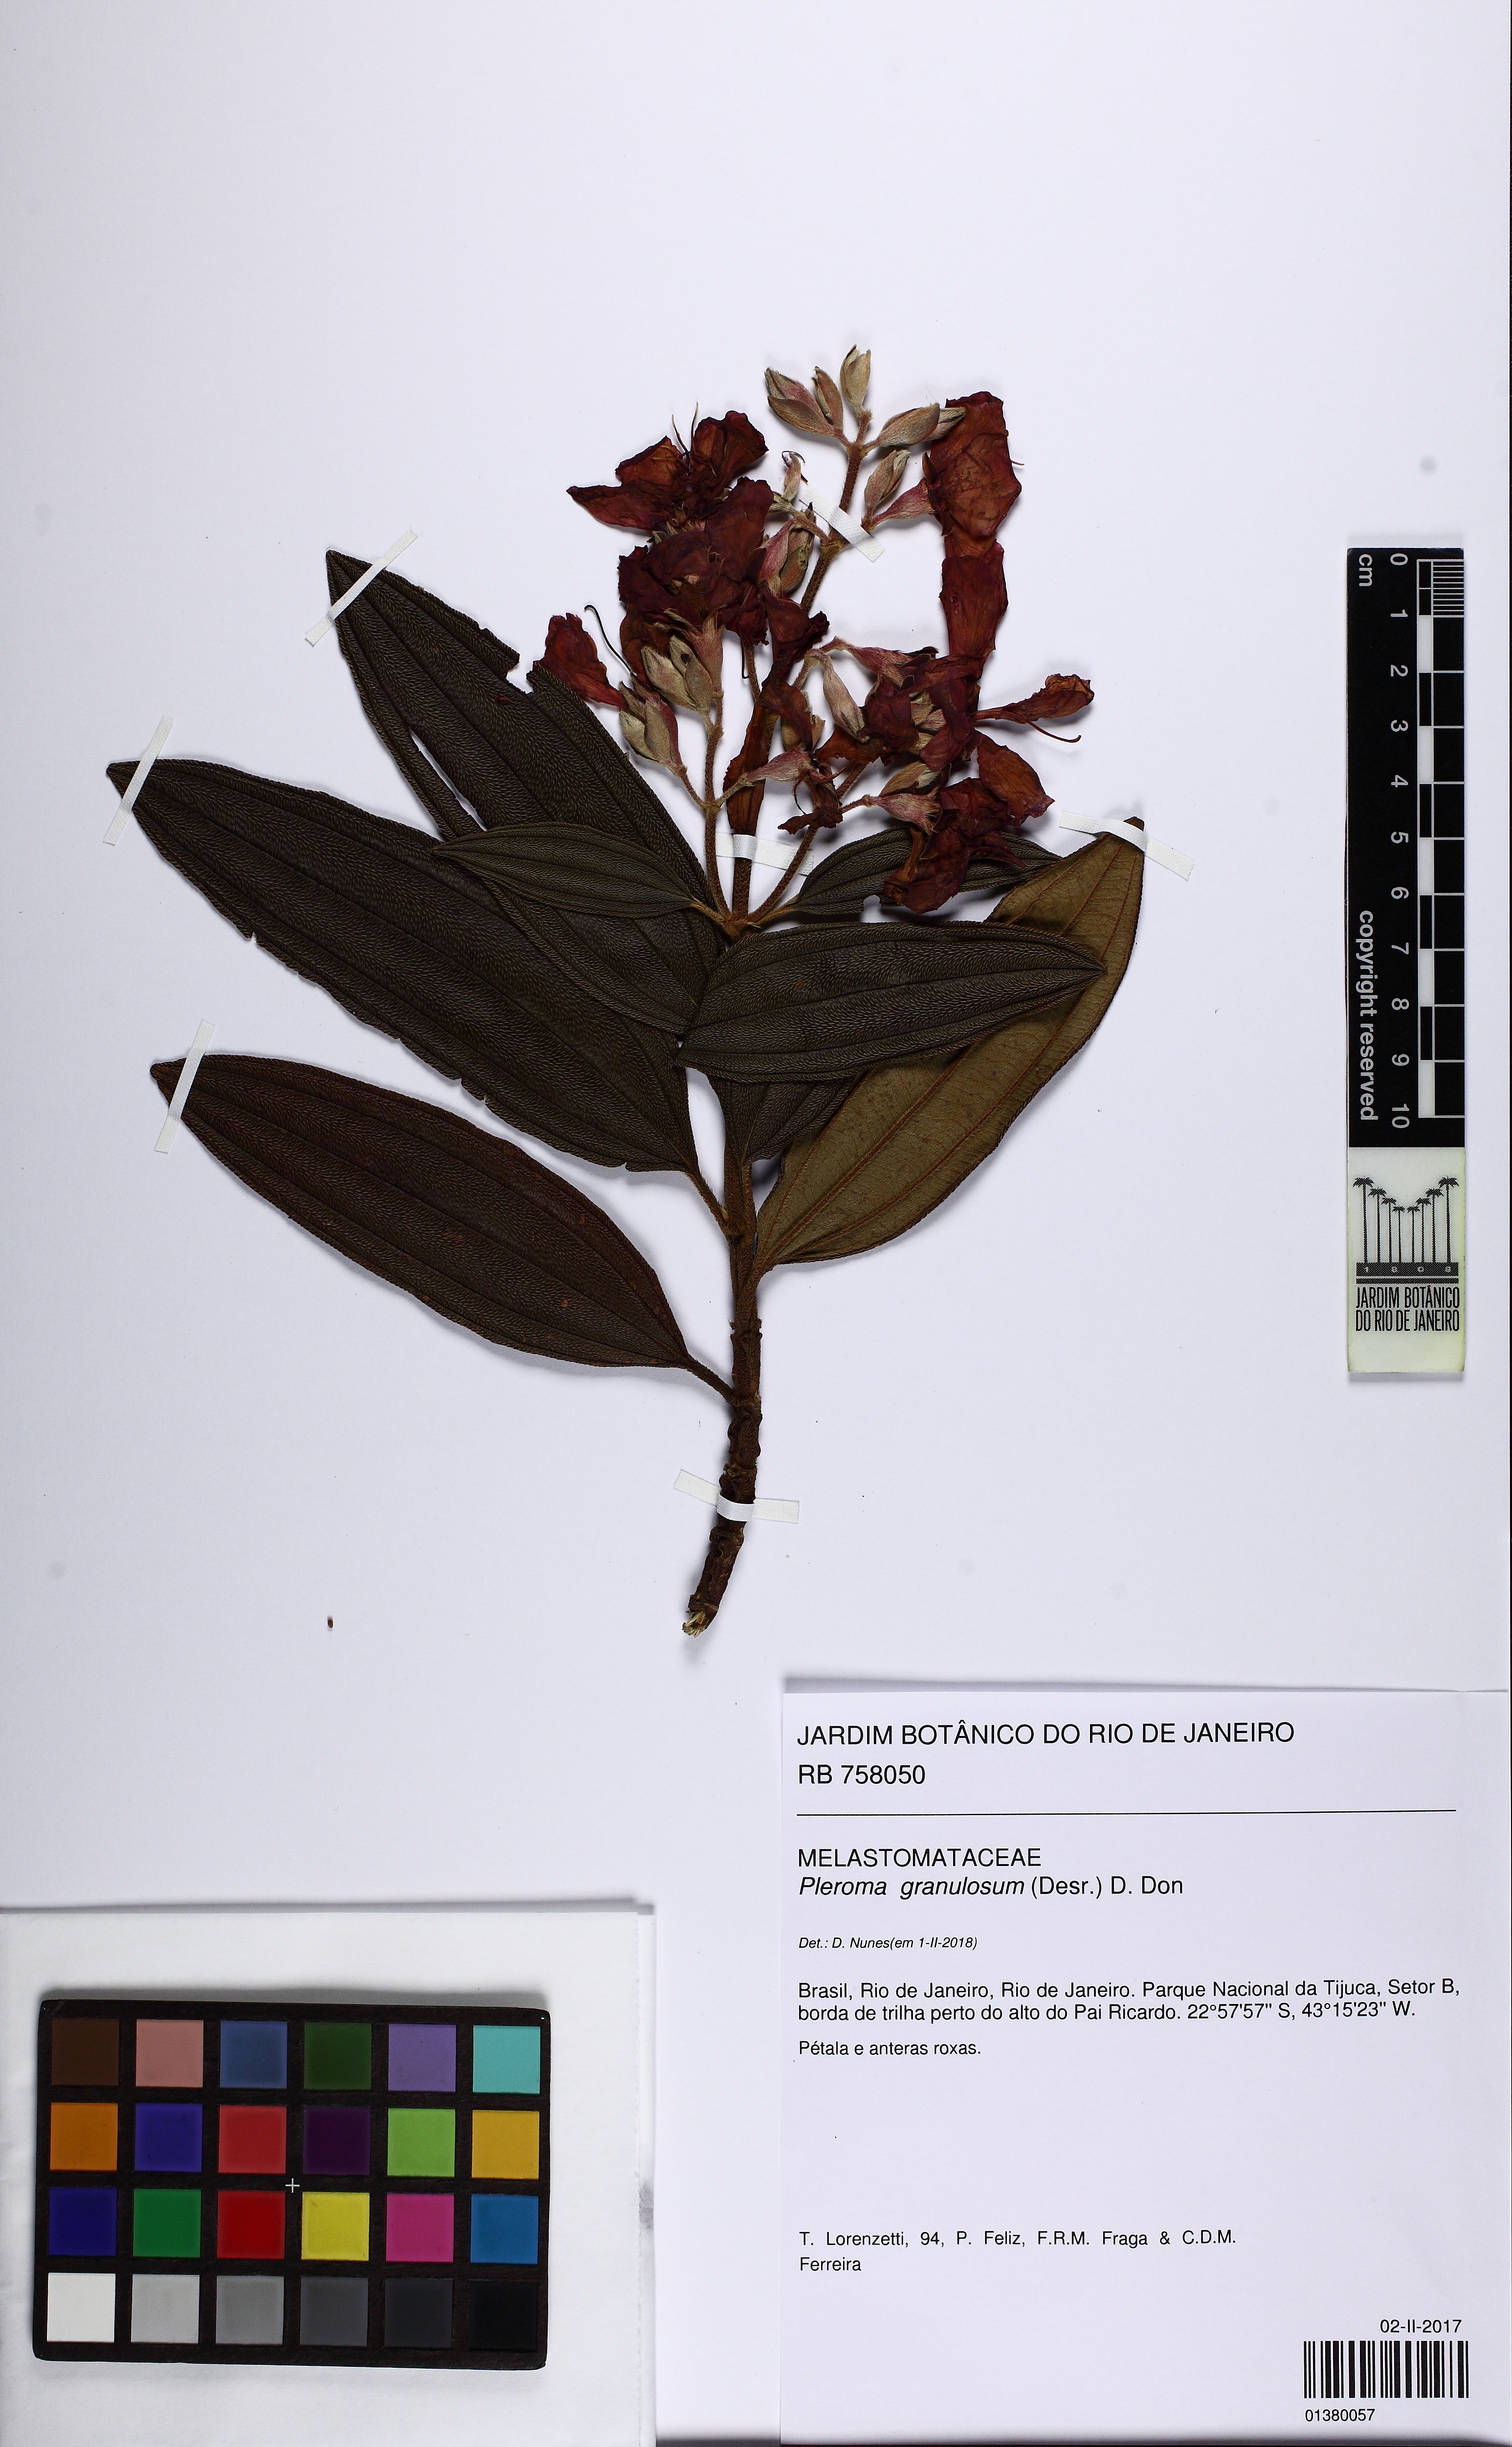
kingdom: Plantae
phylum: Tracheophyta
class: Magnoliopsida
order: Myrtales
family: Melastomataceae
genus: Pleroma
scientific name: Pleroma granulosum
